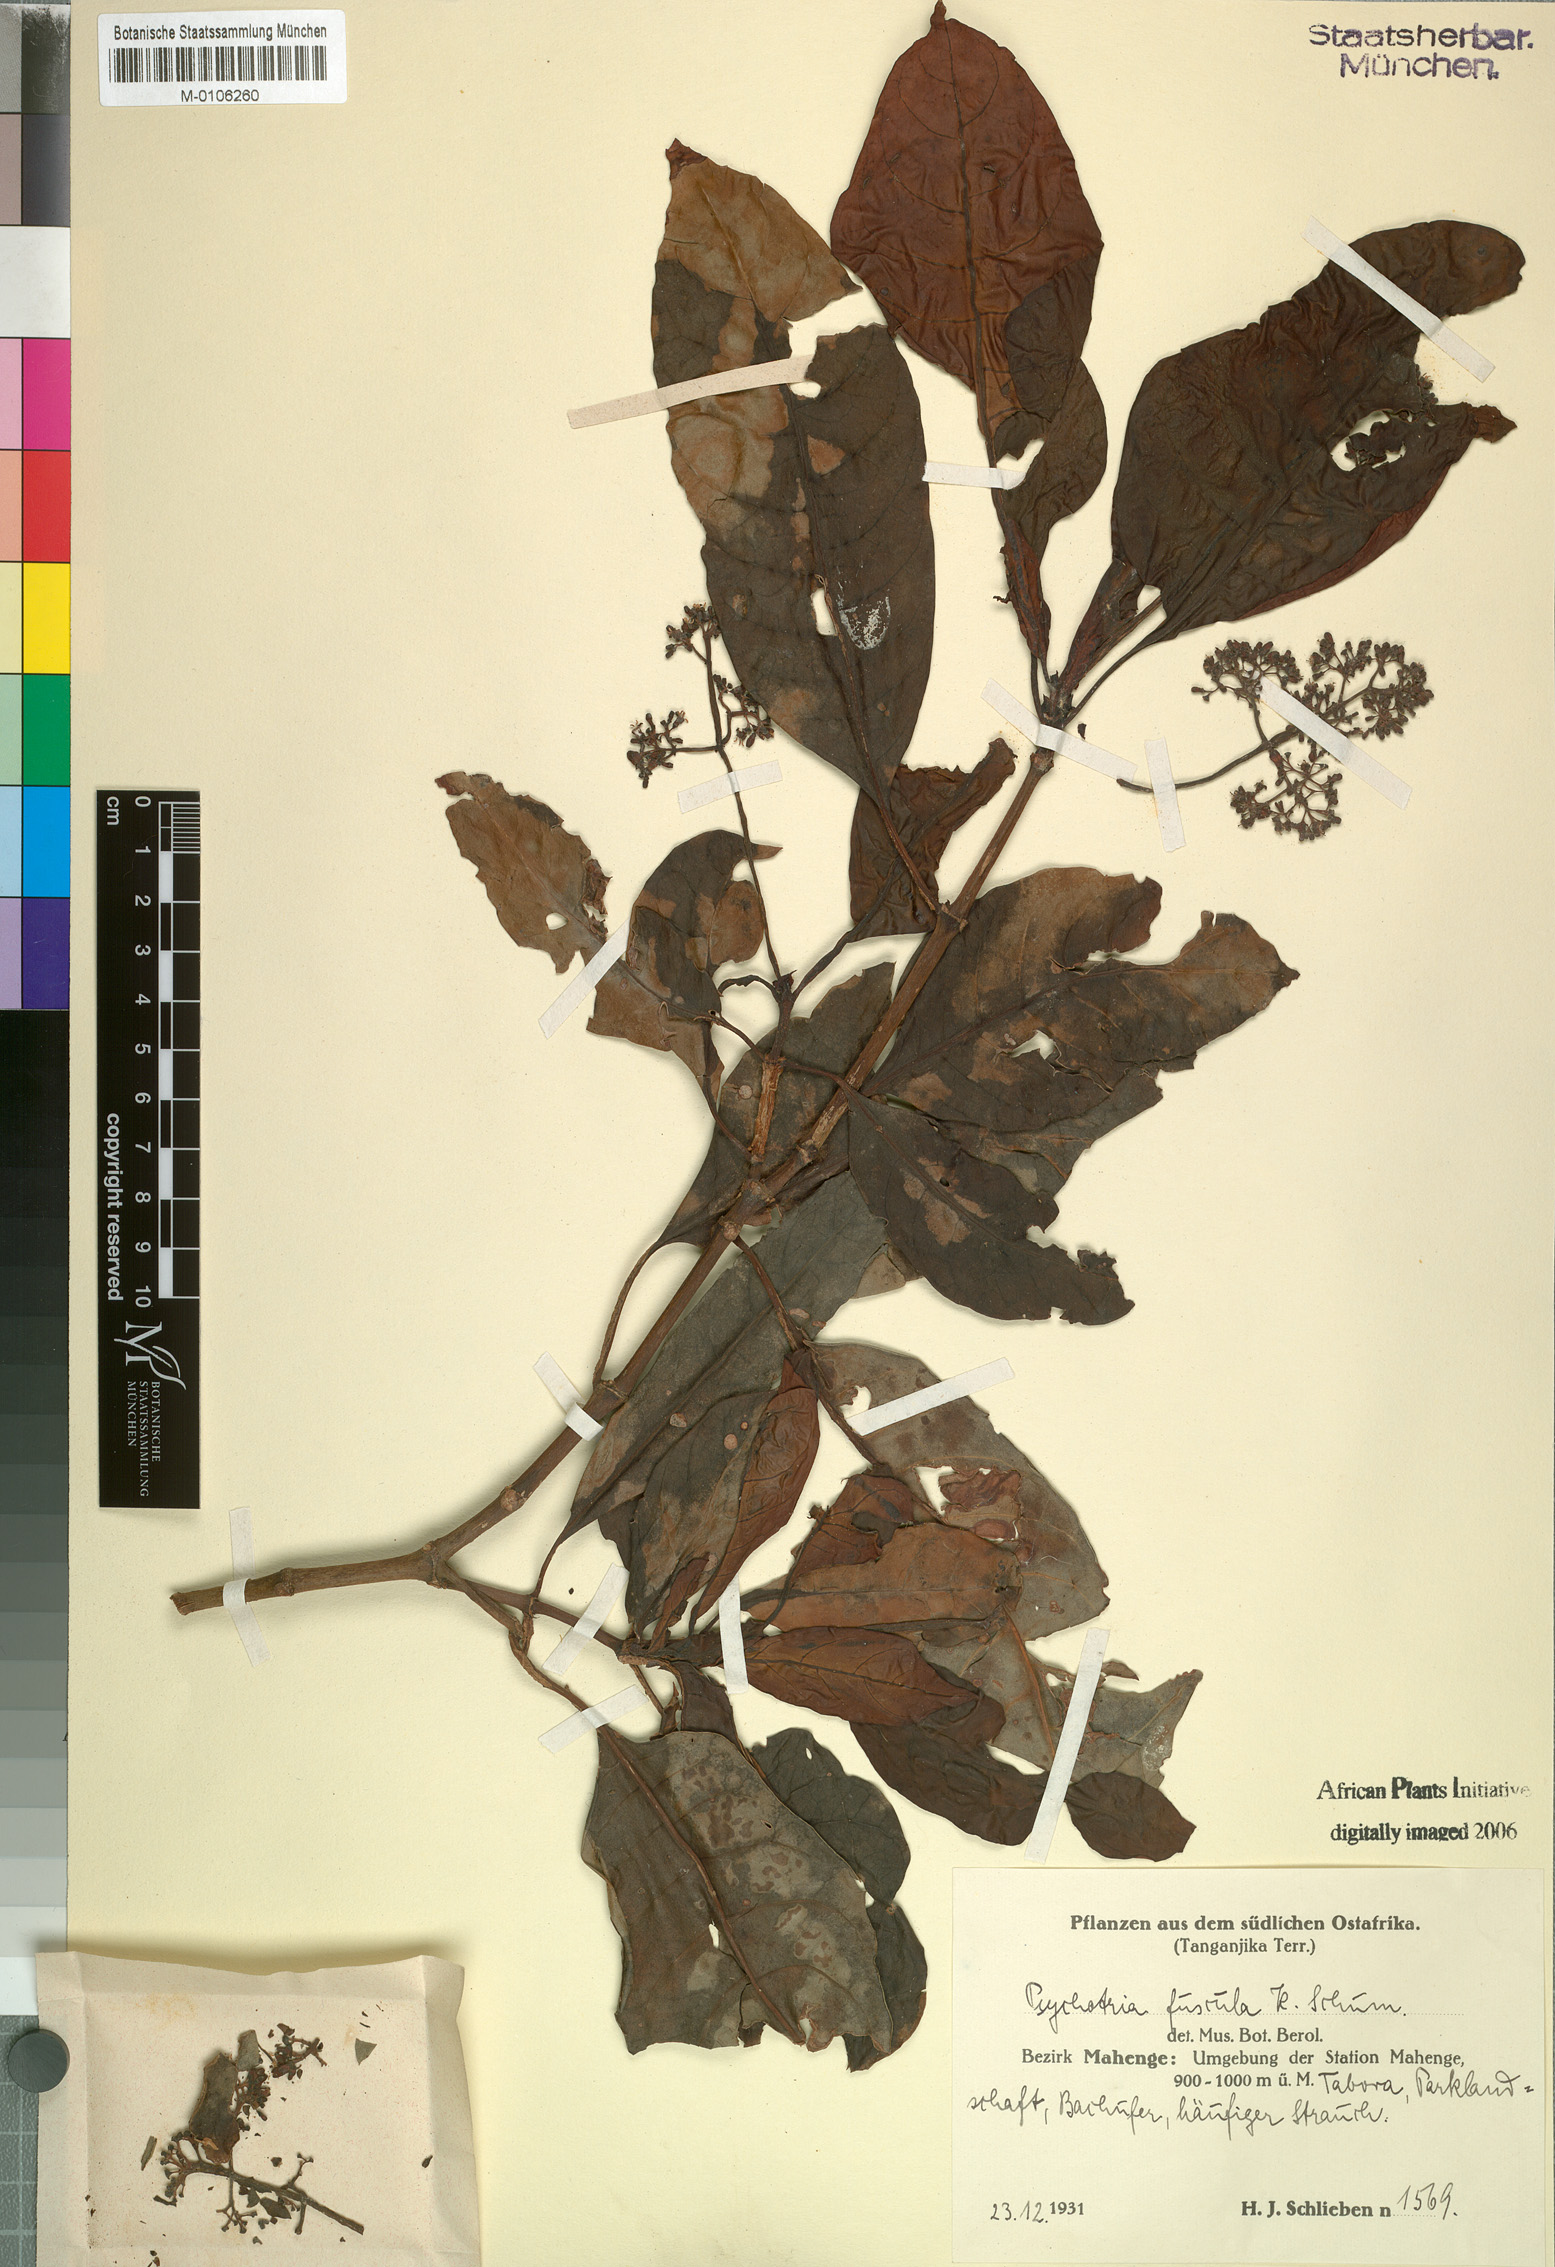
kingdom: Plantae
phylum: Tracheophyta
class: Magnoliopsida
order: Gentianales
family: Rubiaceae
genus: Psychotria
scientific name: Psychotria lauracea
